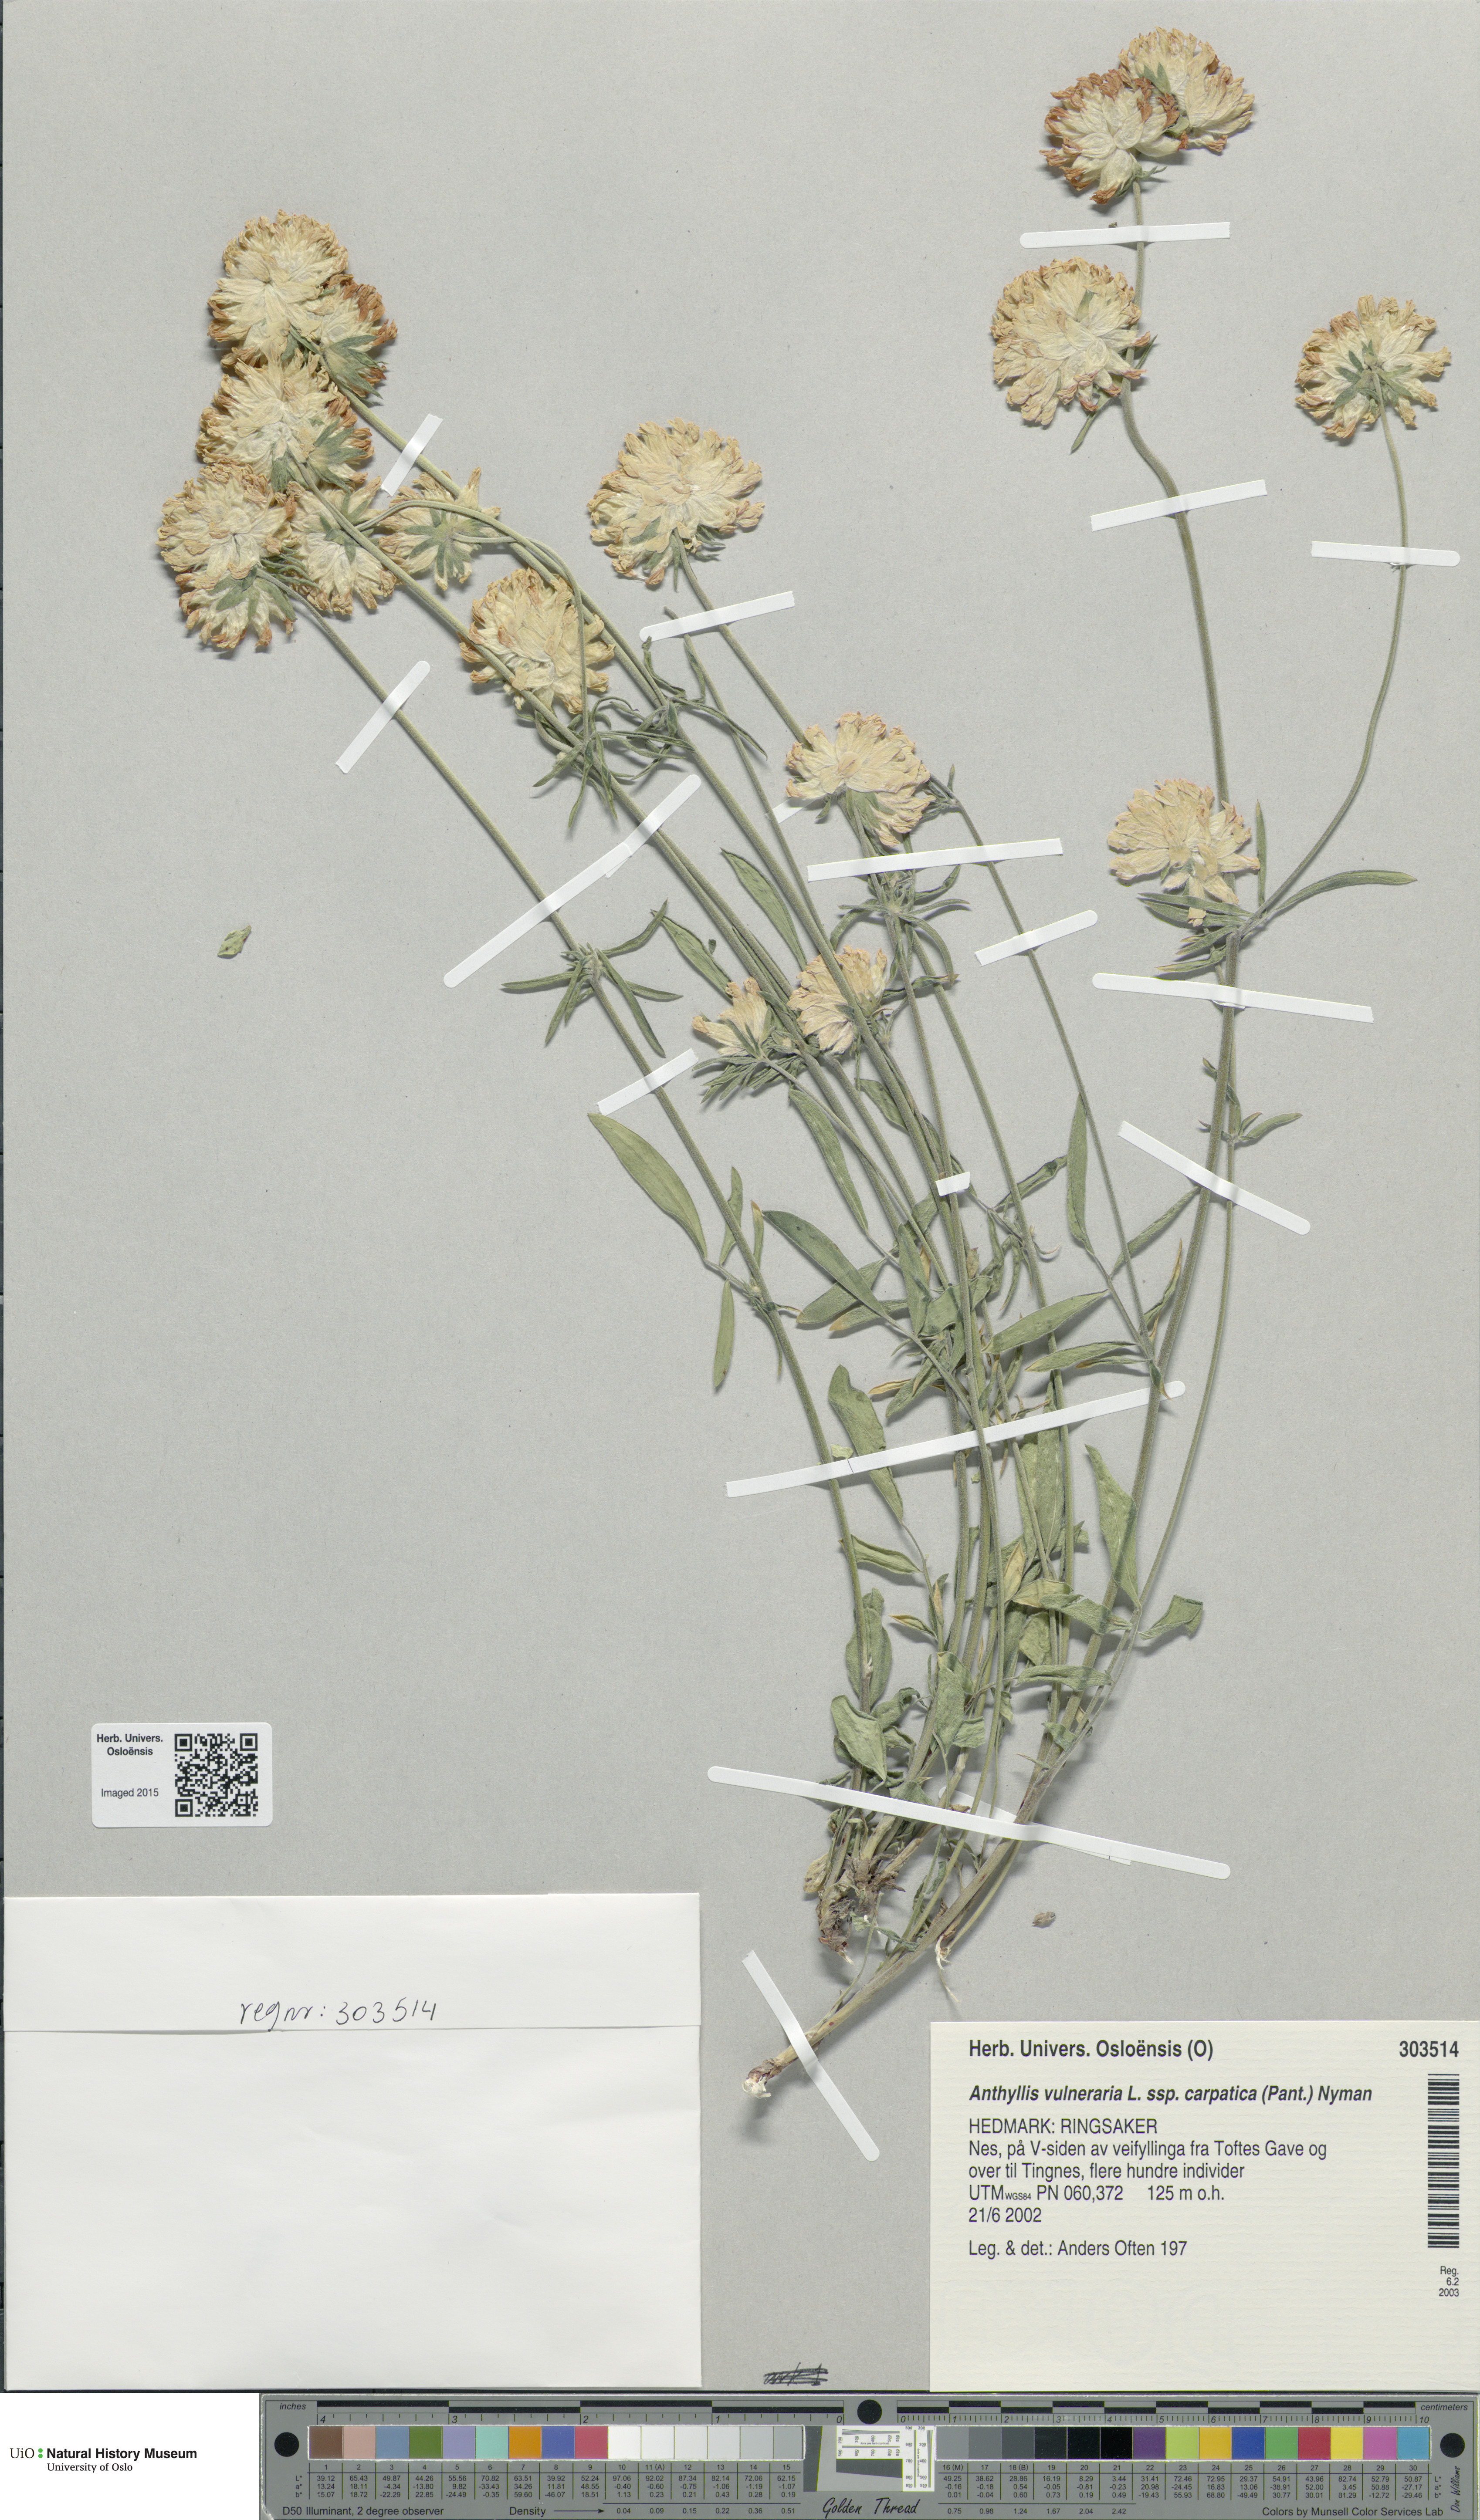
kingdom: Plantae
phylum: Tracheophyta
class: Magnoliopsida
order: Fabales
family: Fabaceae
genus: Anthyllis
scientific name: Anthyllis vulneraria
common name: Kidney vetch
